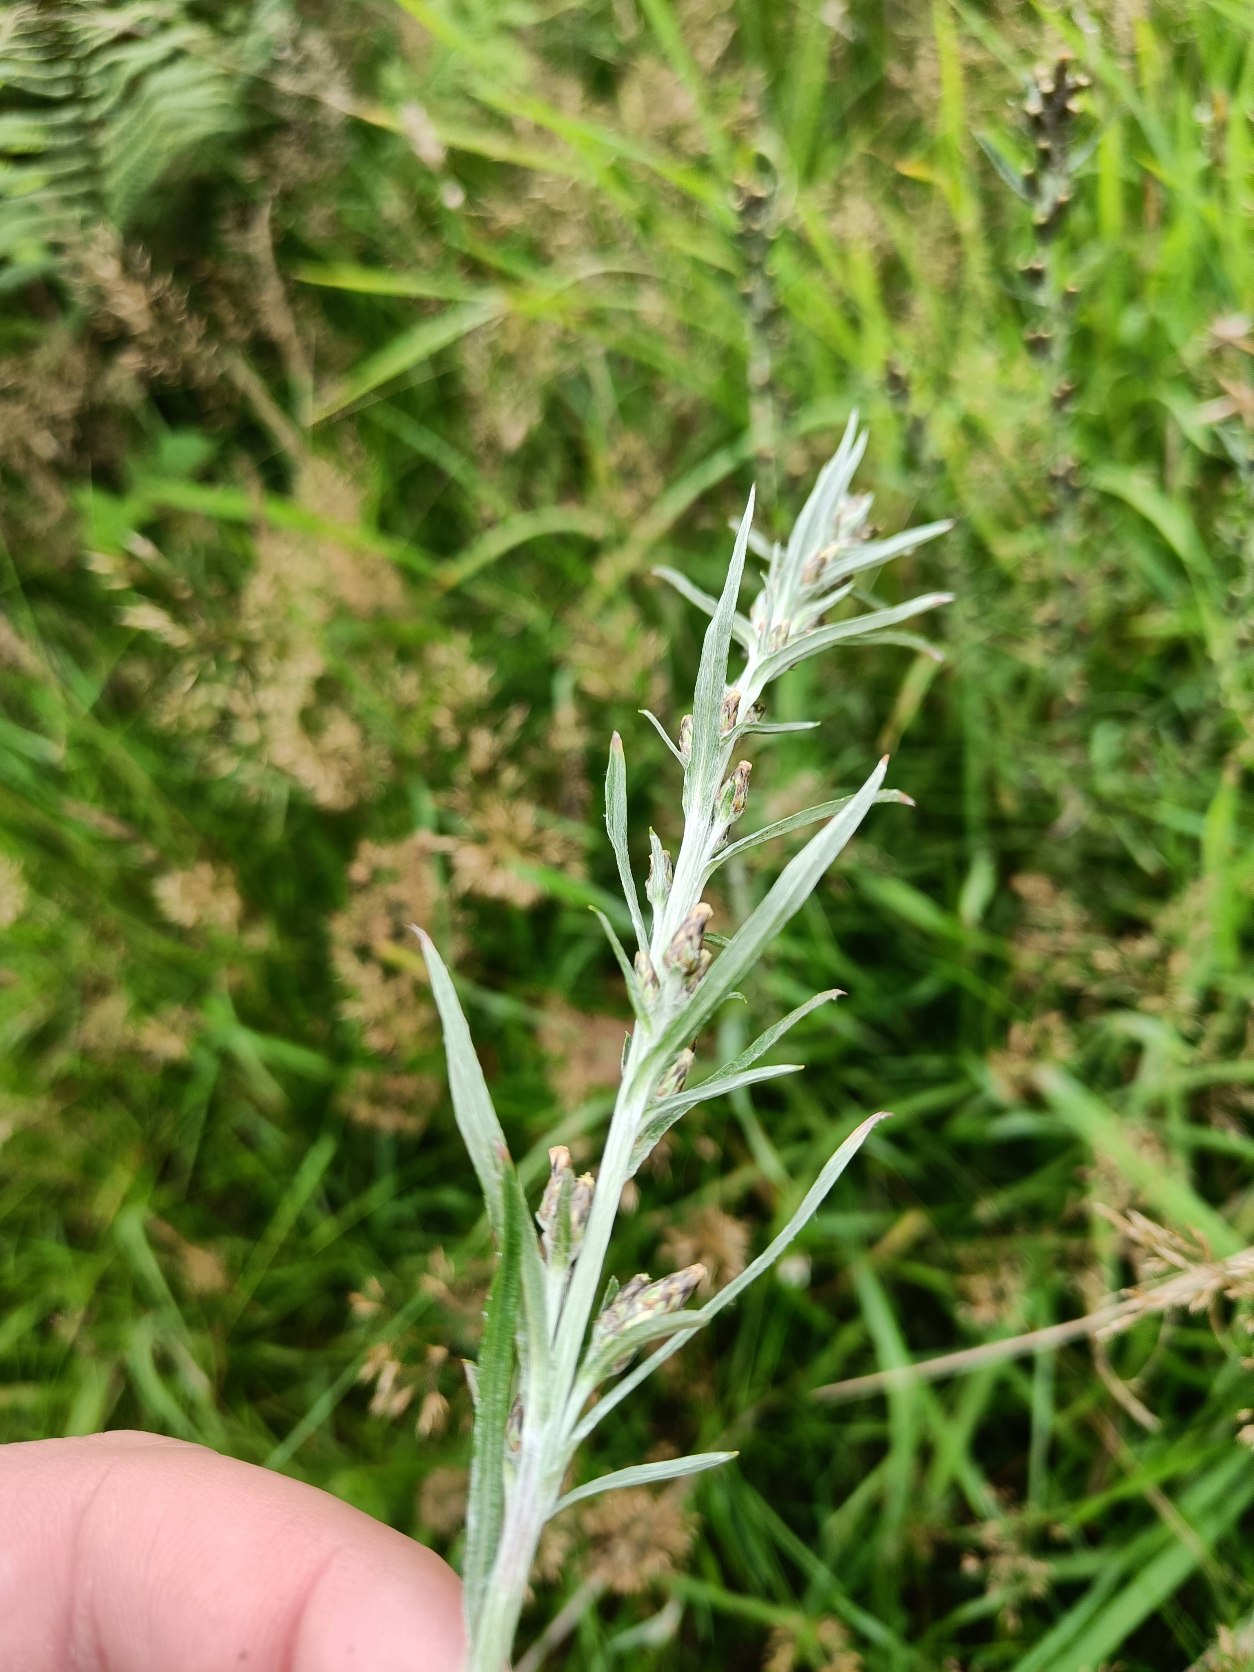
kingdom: Plantae
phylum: Tracheophyta
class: Magnoliopsida
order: Asterales
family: Asteraceae
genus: Omalotheca
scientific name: Omalotheca sylvatica
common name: Rank evighedsblomst
